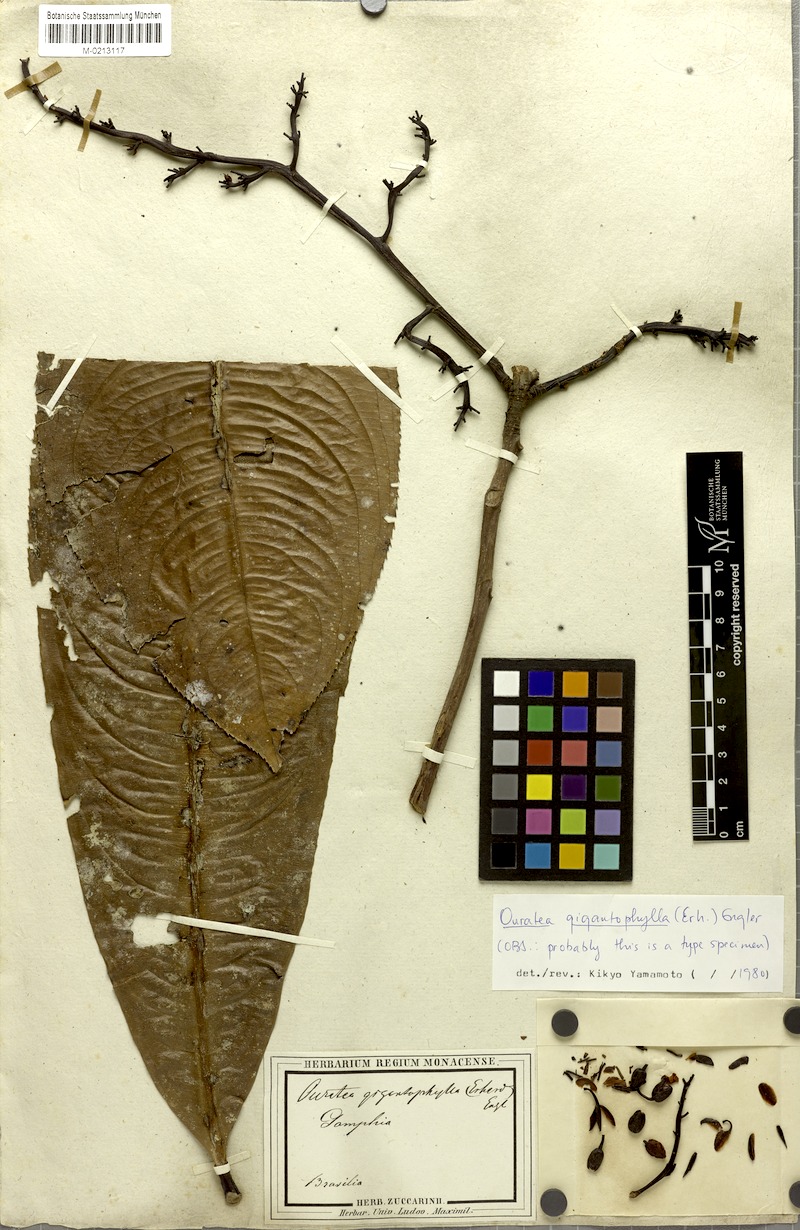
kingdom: Plantae
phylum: Tracheophyta
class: Magnoliopsida
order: Malpighiales
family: Ochnaceae
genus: Ouratea
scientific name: Ouratea gigantophylla
